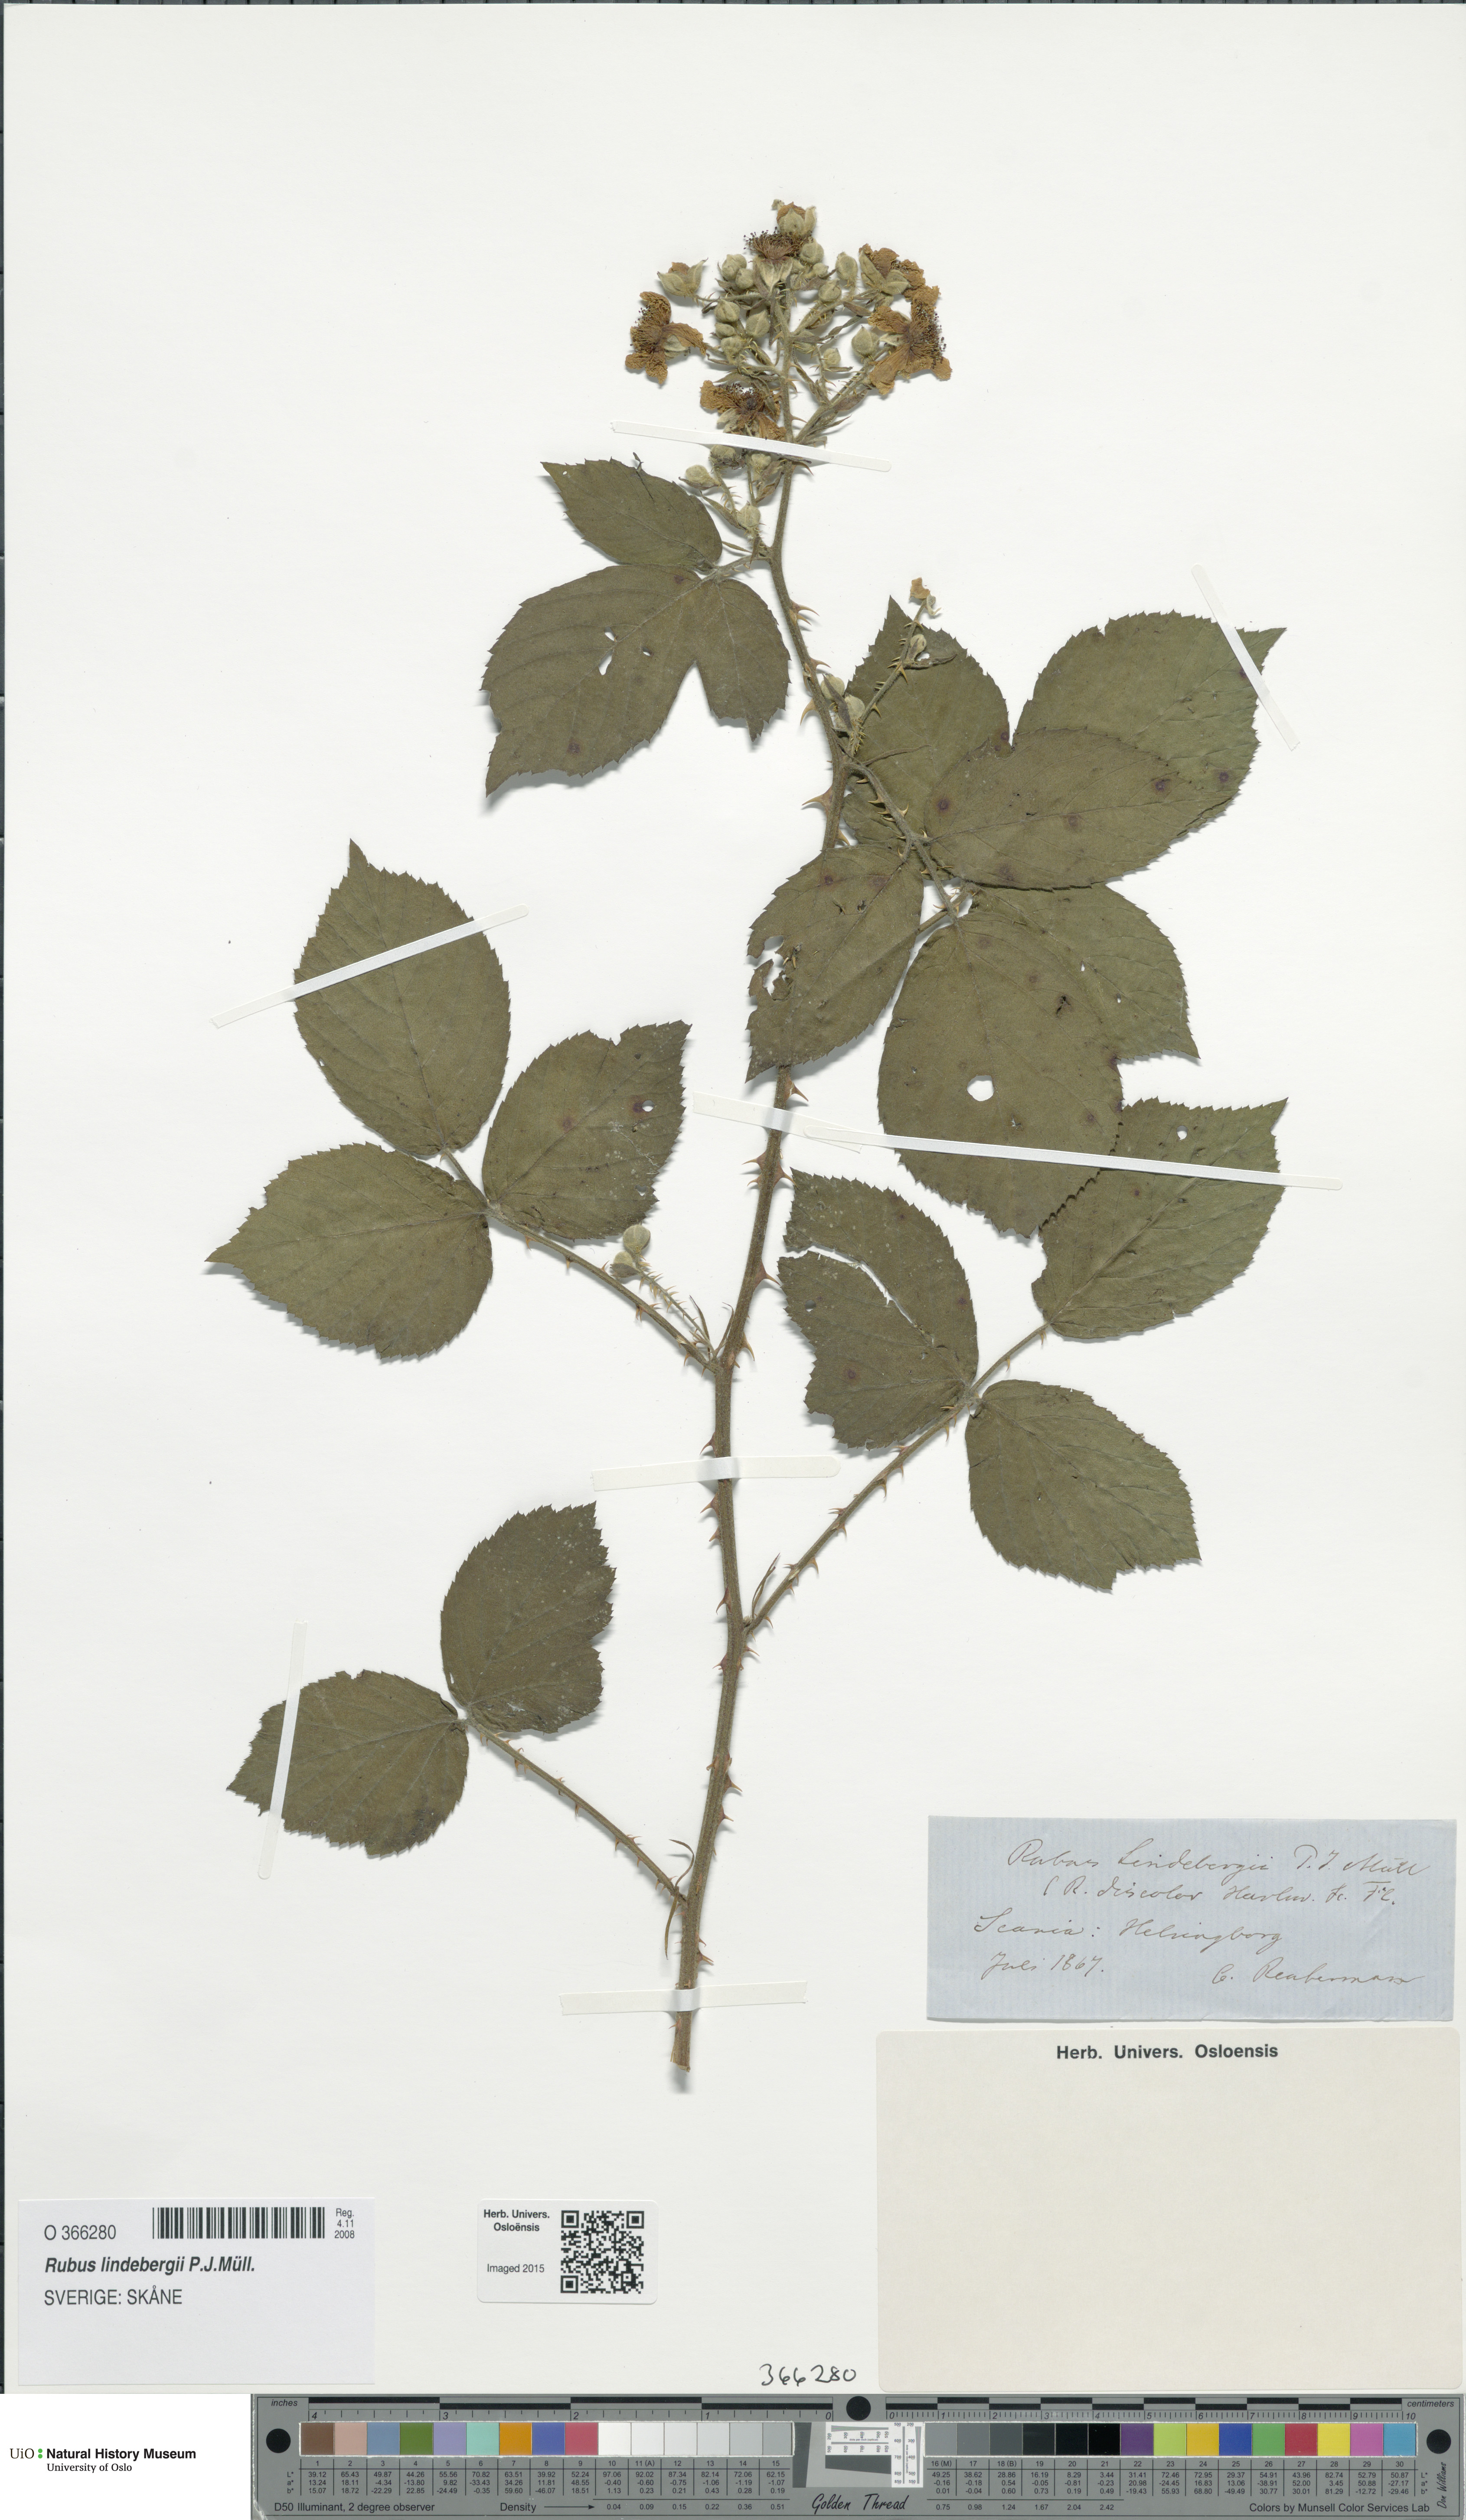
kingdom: Plantae
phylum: Tracheophyta
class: Magnoliopsida
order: Rosales
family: Rosaceae
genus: Rubus
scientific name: Rubus lindebergii
